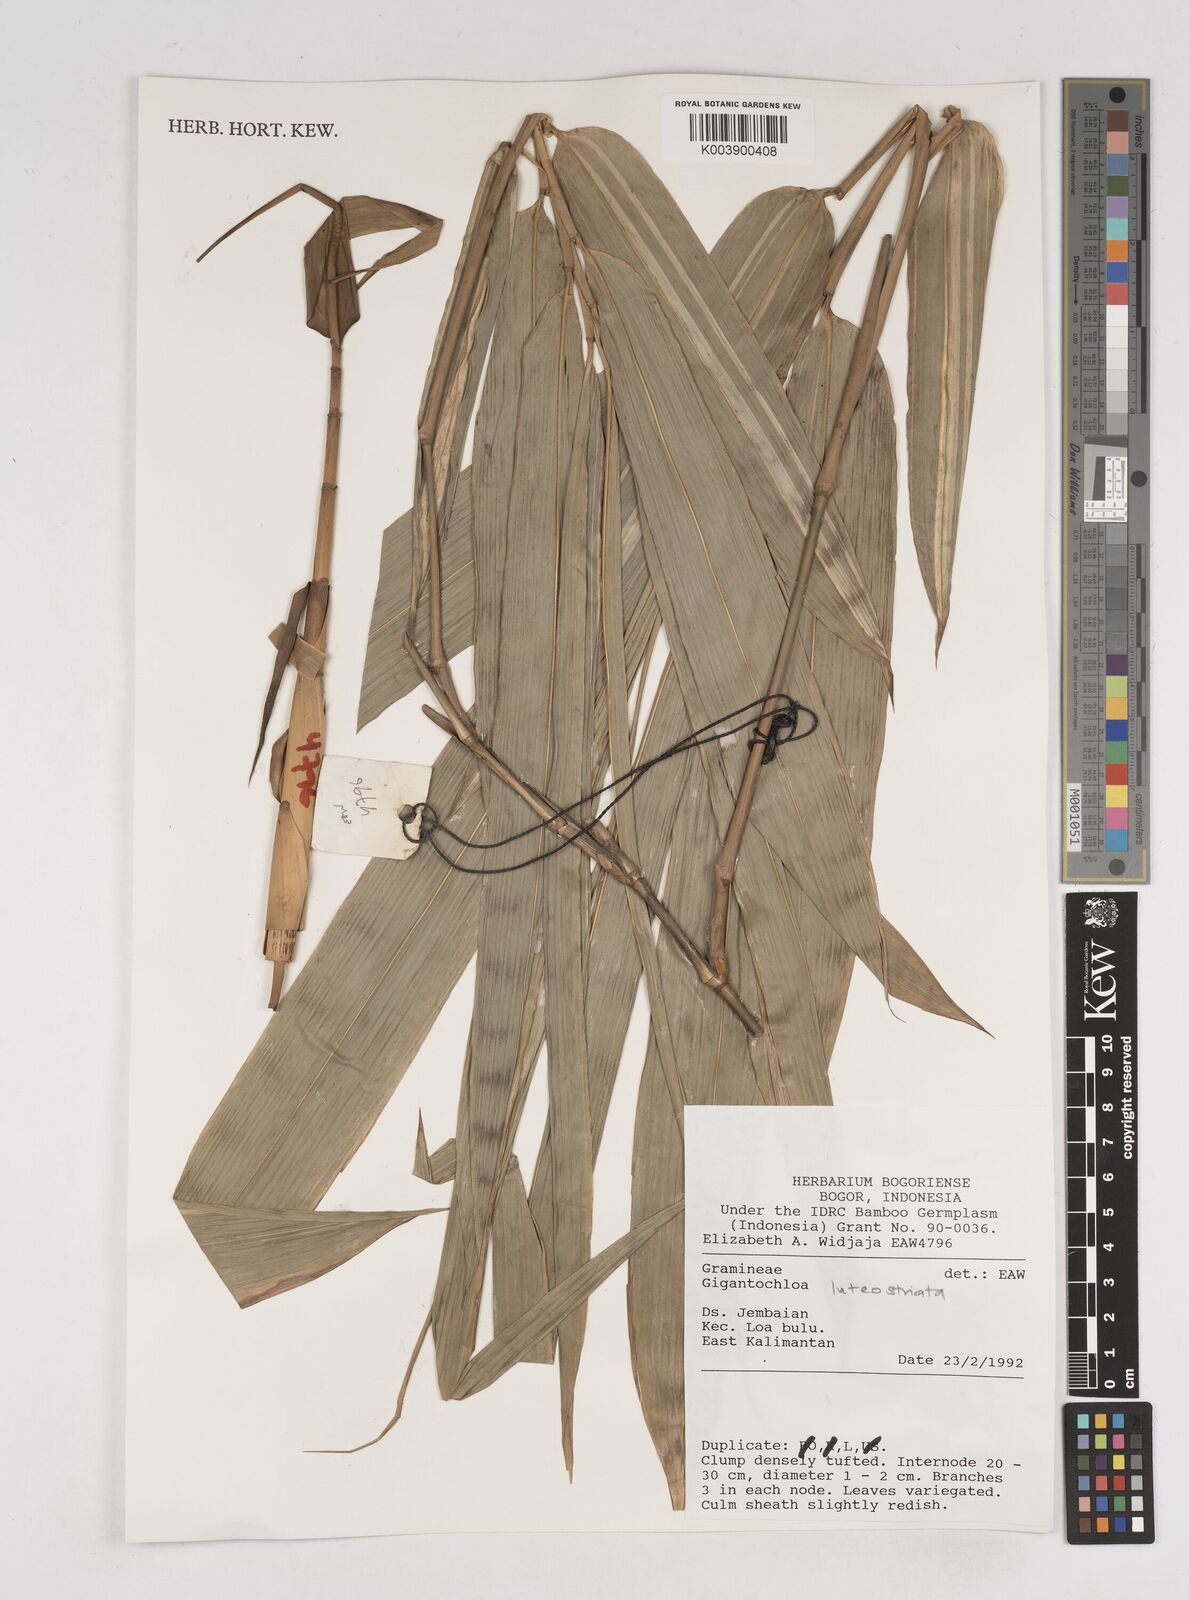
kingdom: Plantae
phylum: Tracheophyta
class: Liliopsida
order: Poales
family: Poaceae
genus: Gigantochloa
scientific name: Gigantochloa luteostriata
